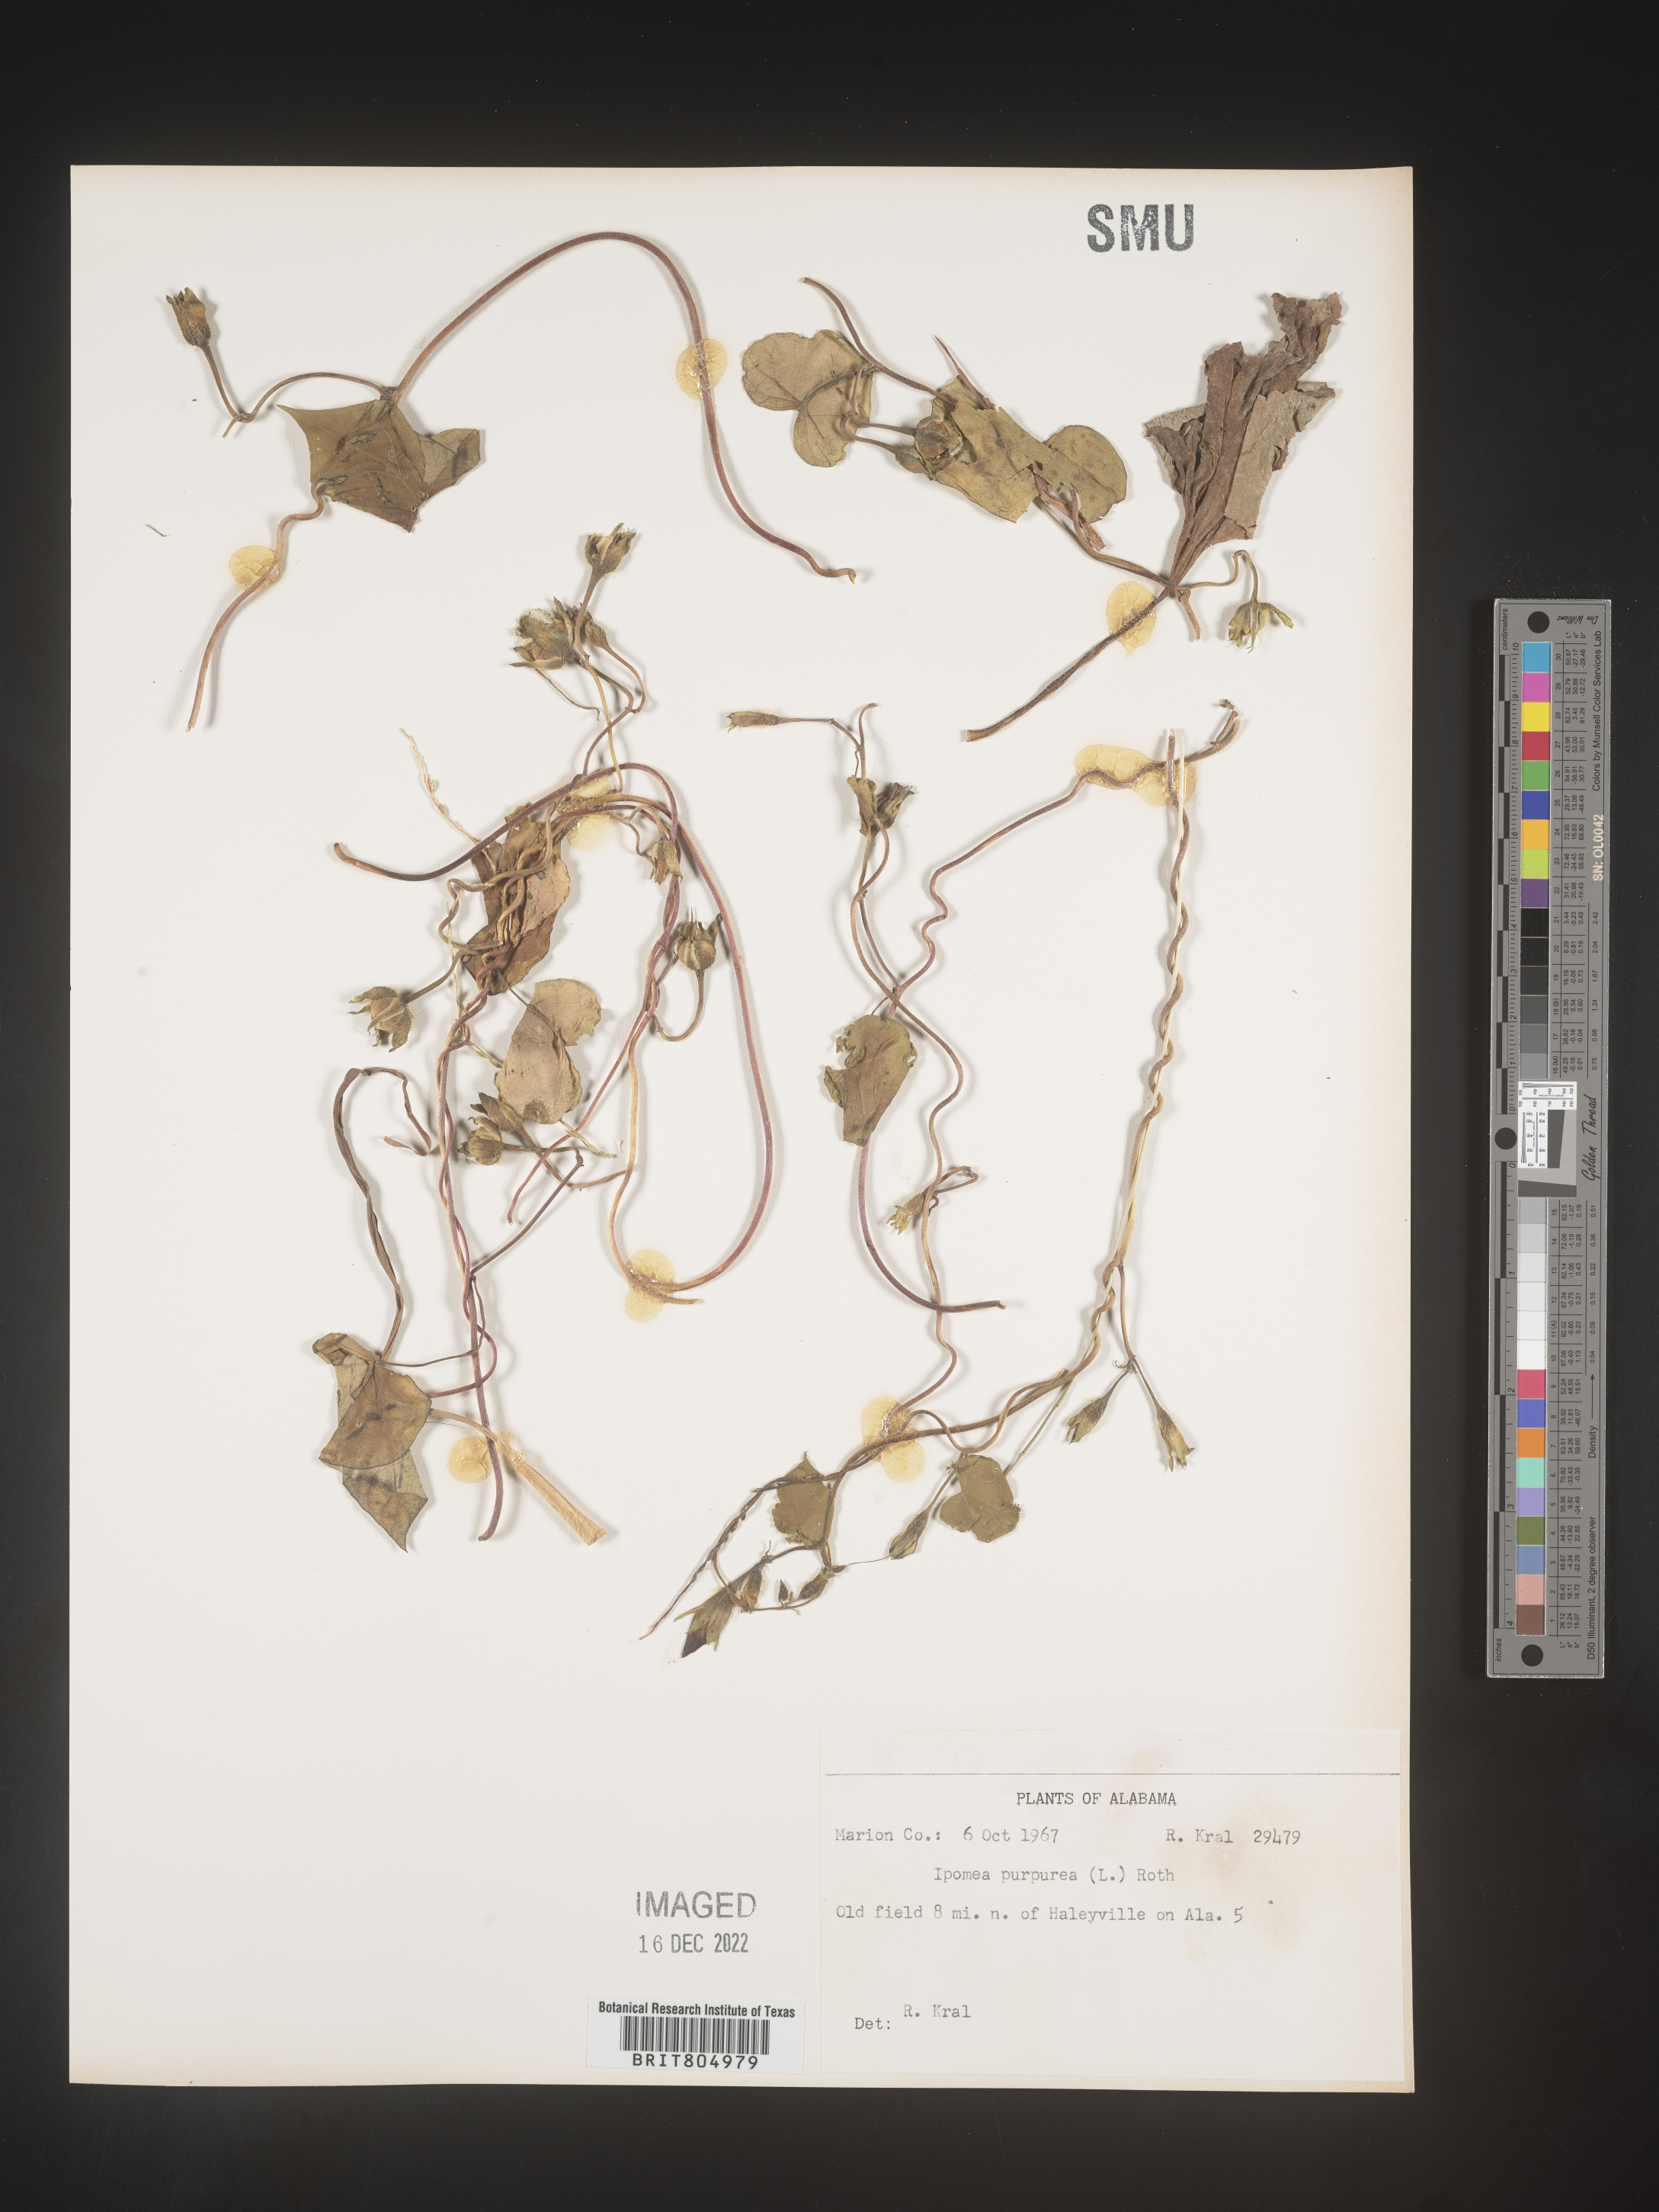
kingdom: Plantae
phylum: Tracheophyta
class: Magnoliopsida
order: Solanales
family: Convolvulaceae
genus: Ipomoea
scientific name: Ipomoea purpurea
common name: Common morning-glory
